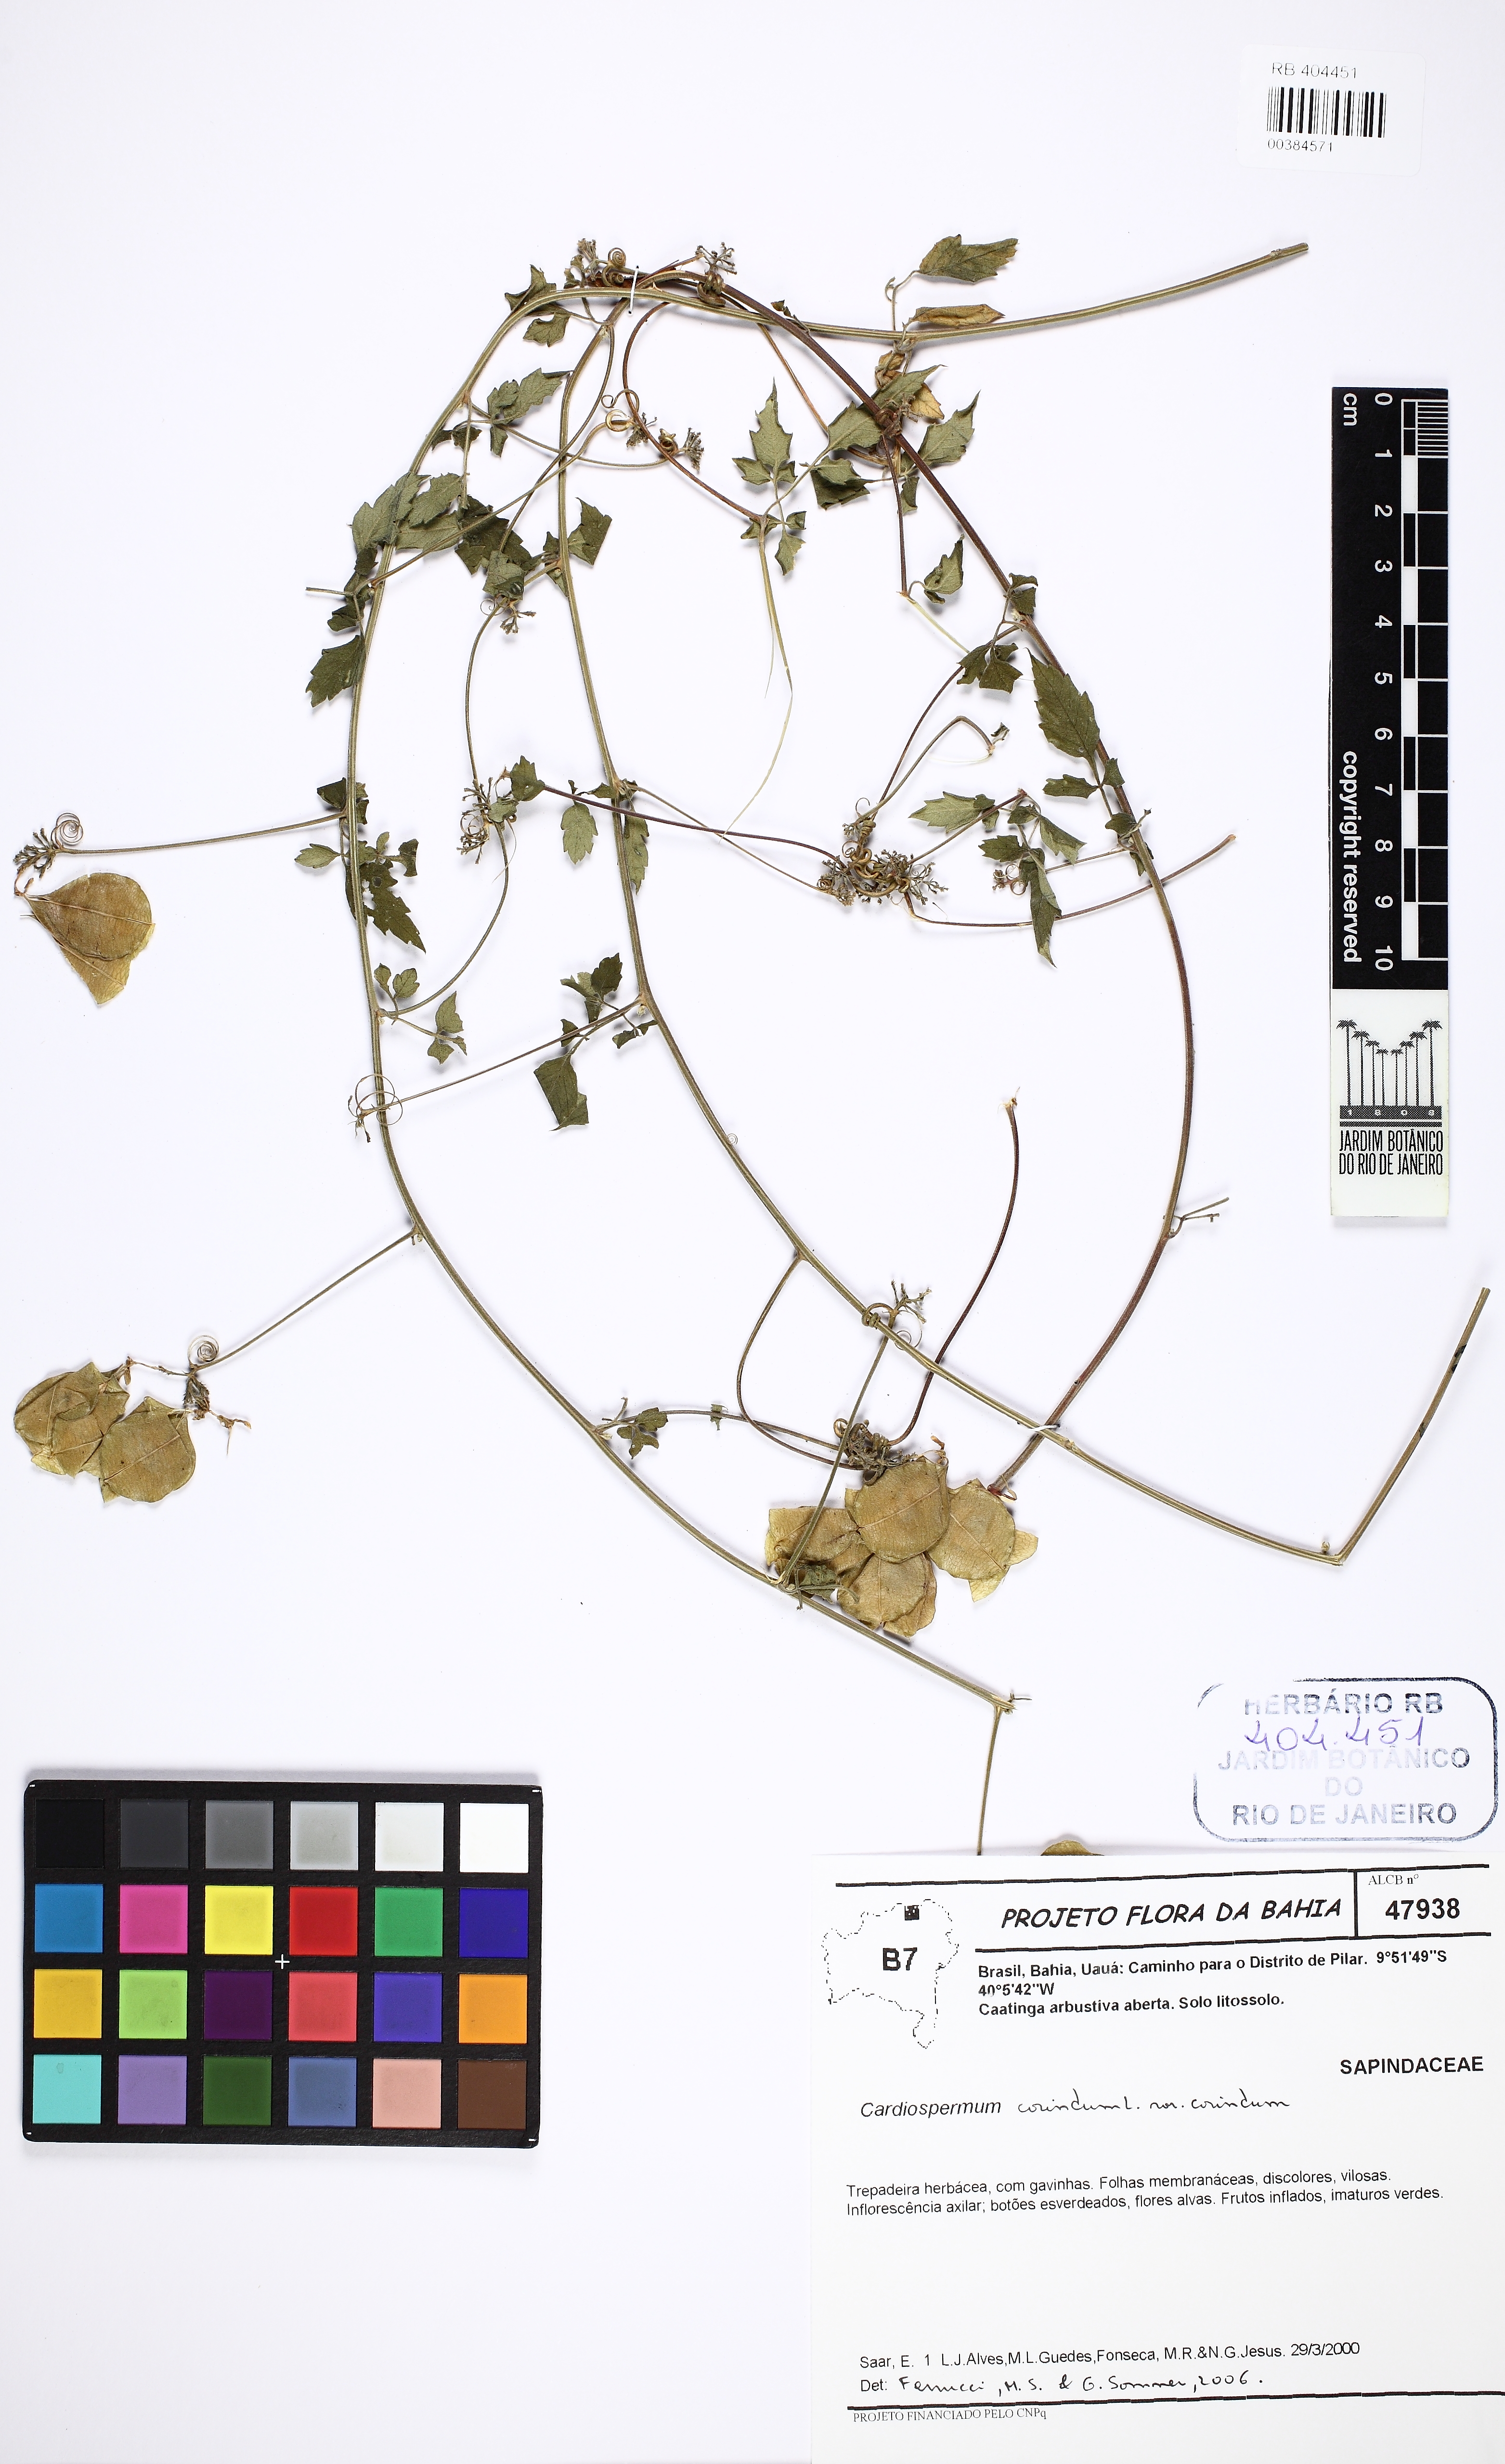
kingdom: Plantae
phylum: Tracheophyta
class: Magnoliopsida
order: Sapindales
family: Sapindaceae
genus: Cardiospermum
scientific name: Cardiospermum corindum
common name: Faux persil
